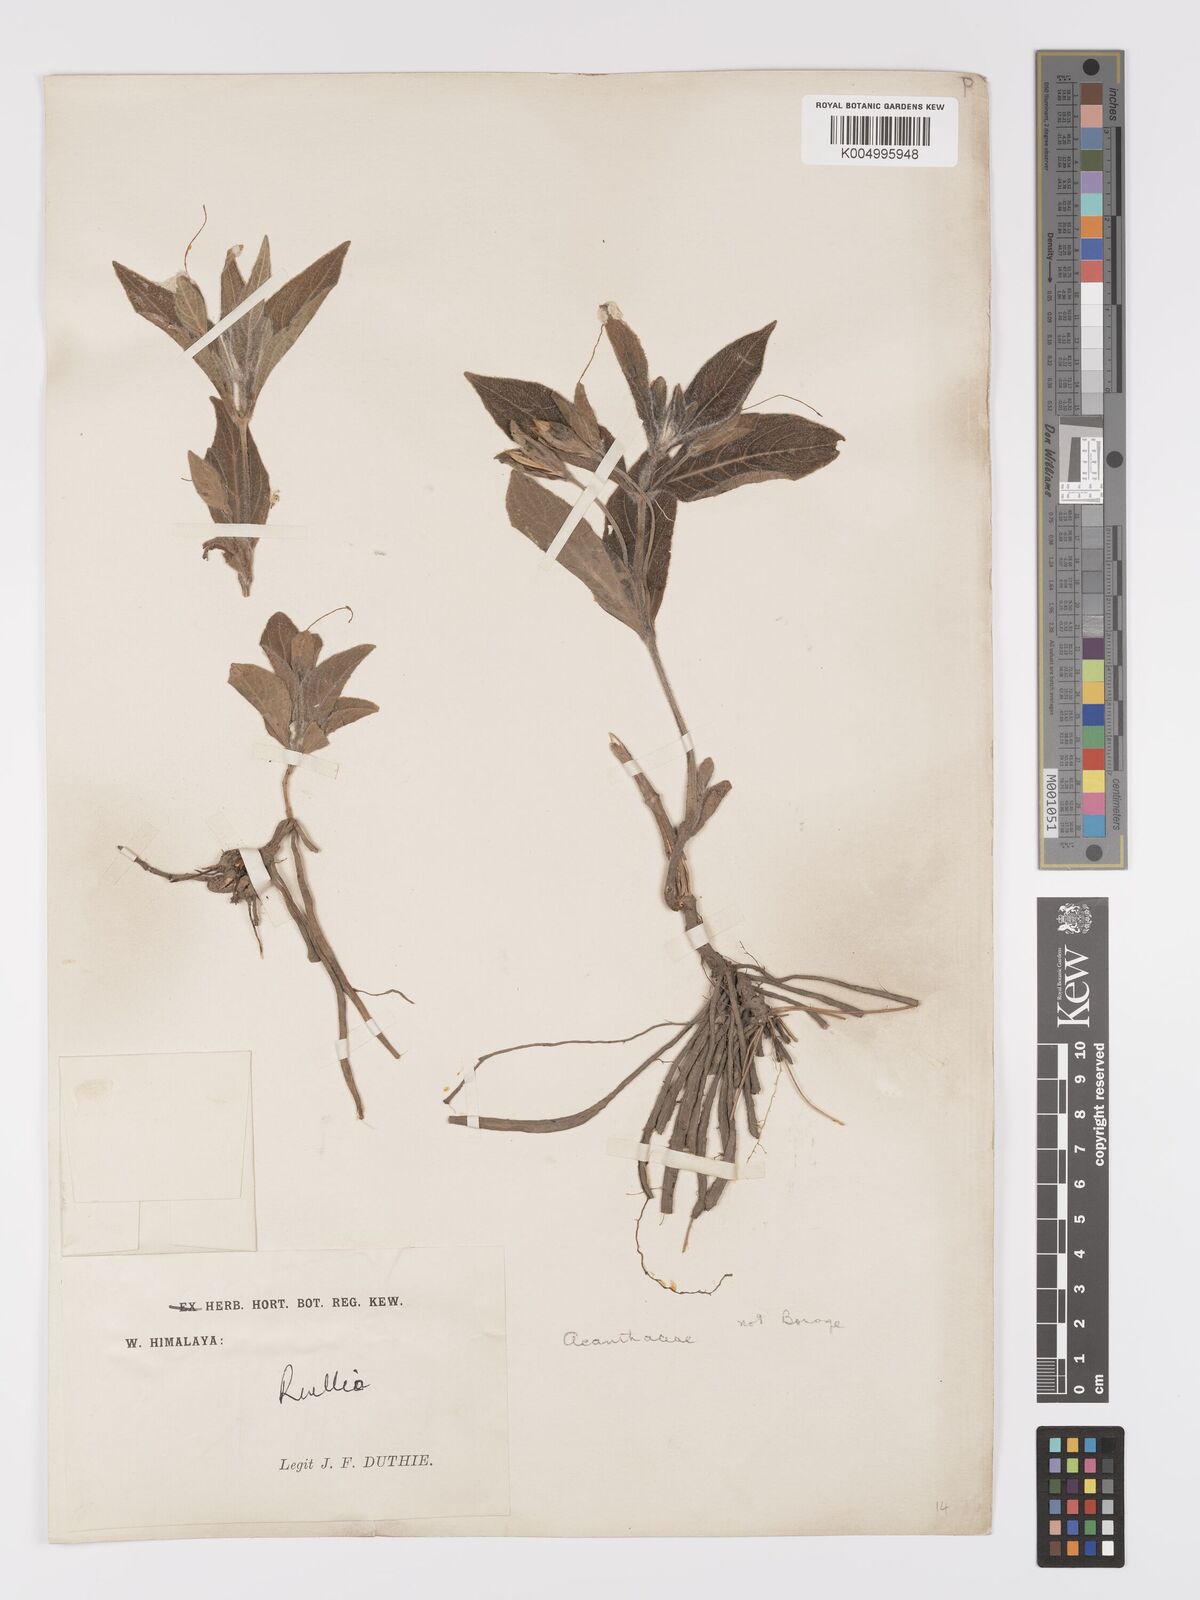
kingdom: Plantae
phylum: Tracheophyta
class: Magnoliopsida
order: Lamiales
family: Acanthaceae
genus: Ruellia
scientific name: Ruellia
